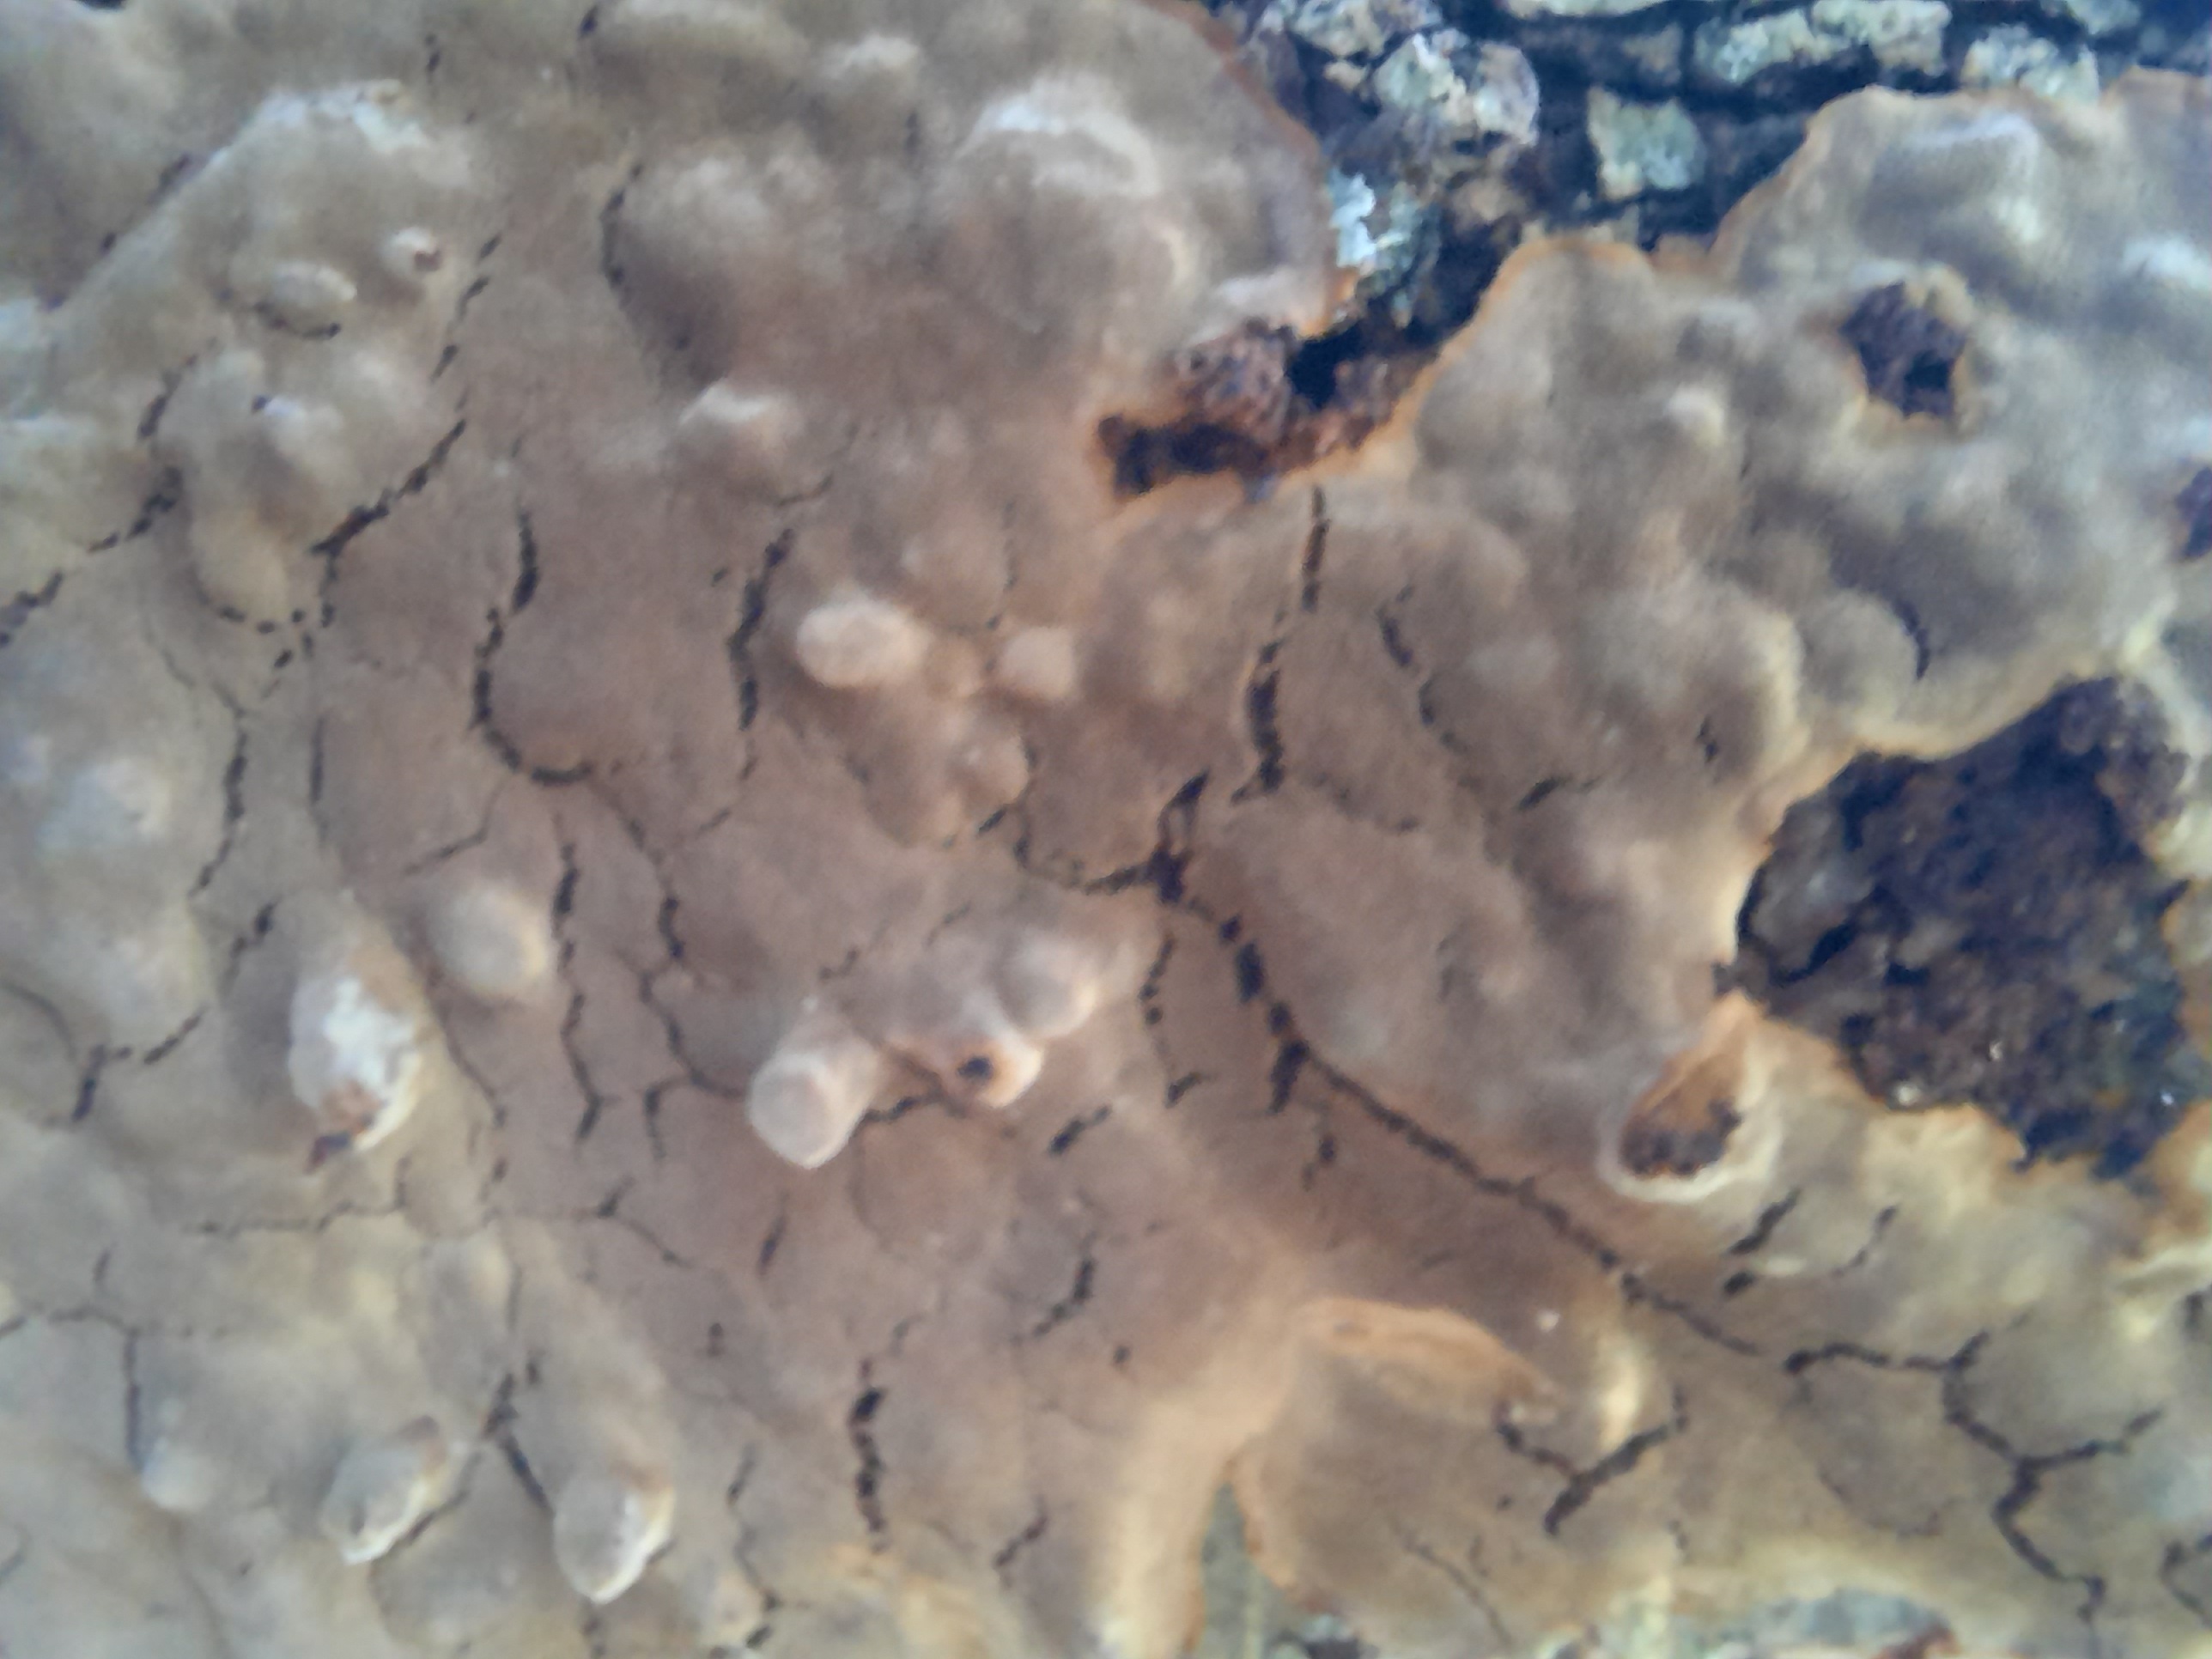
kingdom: Fungi
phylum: Basidiomycota
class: Agaricomycetes
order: Hymenochaetales
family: Hymenochaetaceae
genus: Phellinus
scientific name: Phellinus laevigatus
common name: glat ildporesvamp
